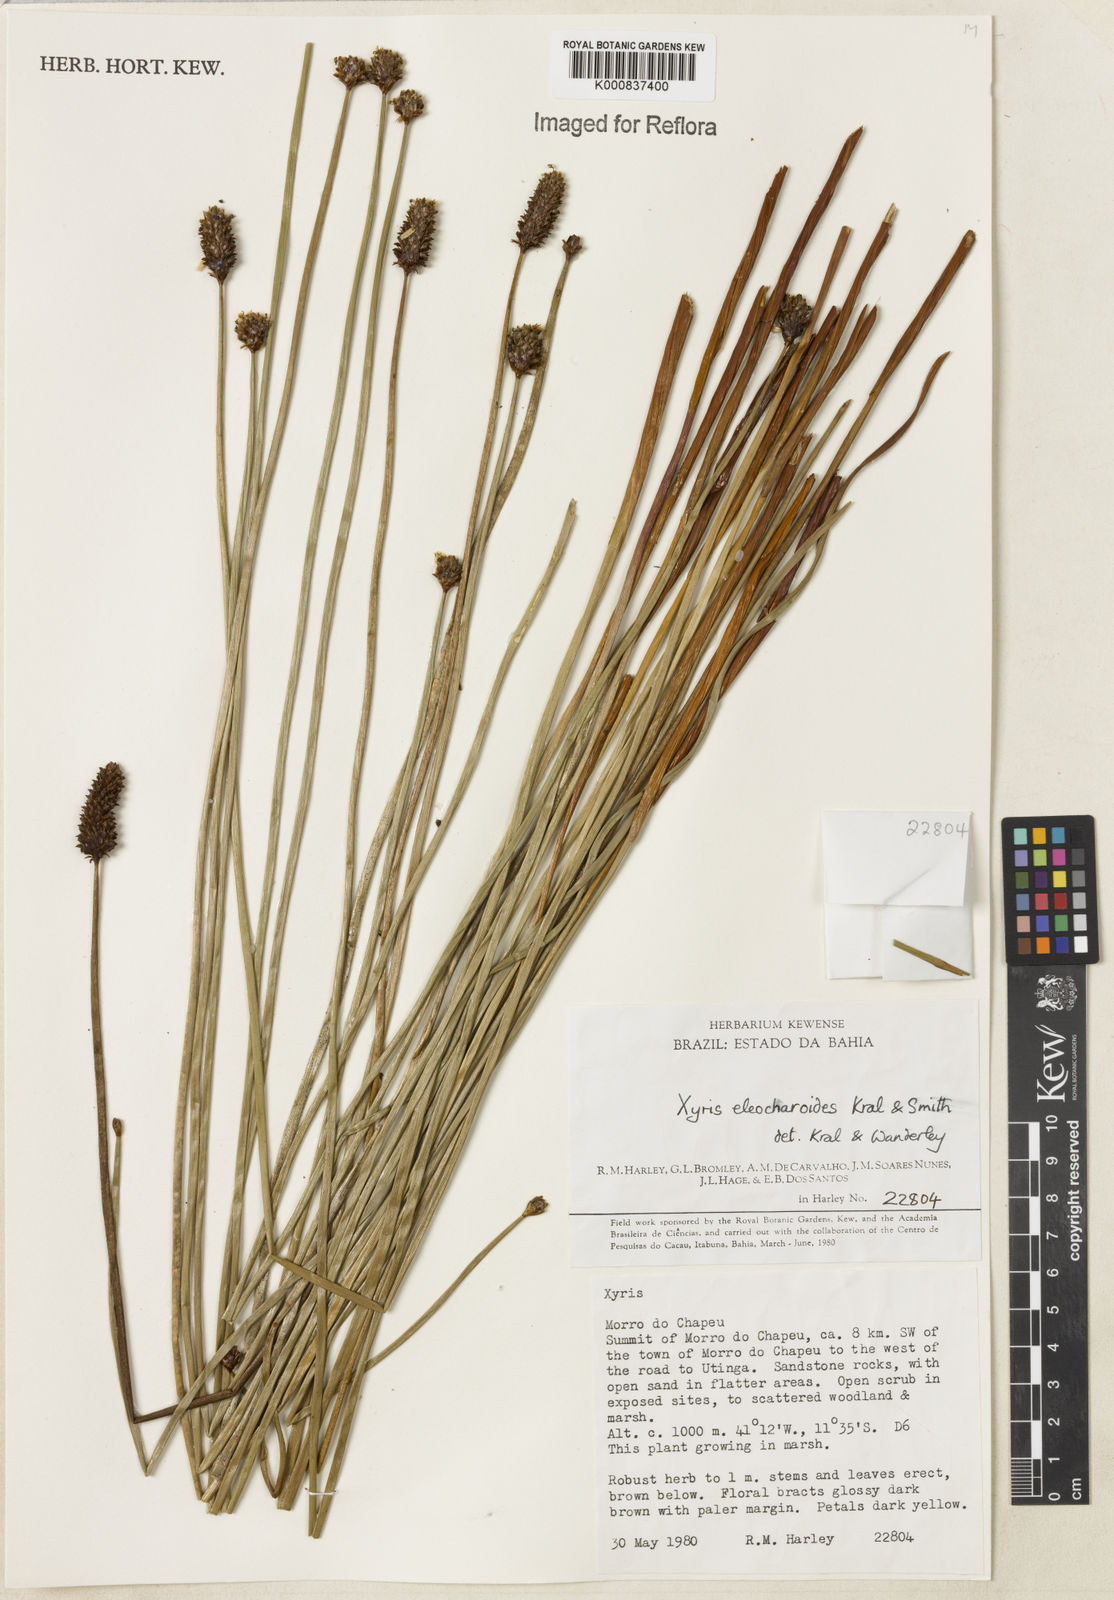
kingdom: Plantae
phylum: Tracheophyta
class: Liliopsida
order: Poales
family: Xyridaceae
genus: Xyris
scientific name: Xyris eleocharoides
